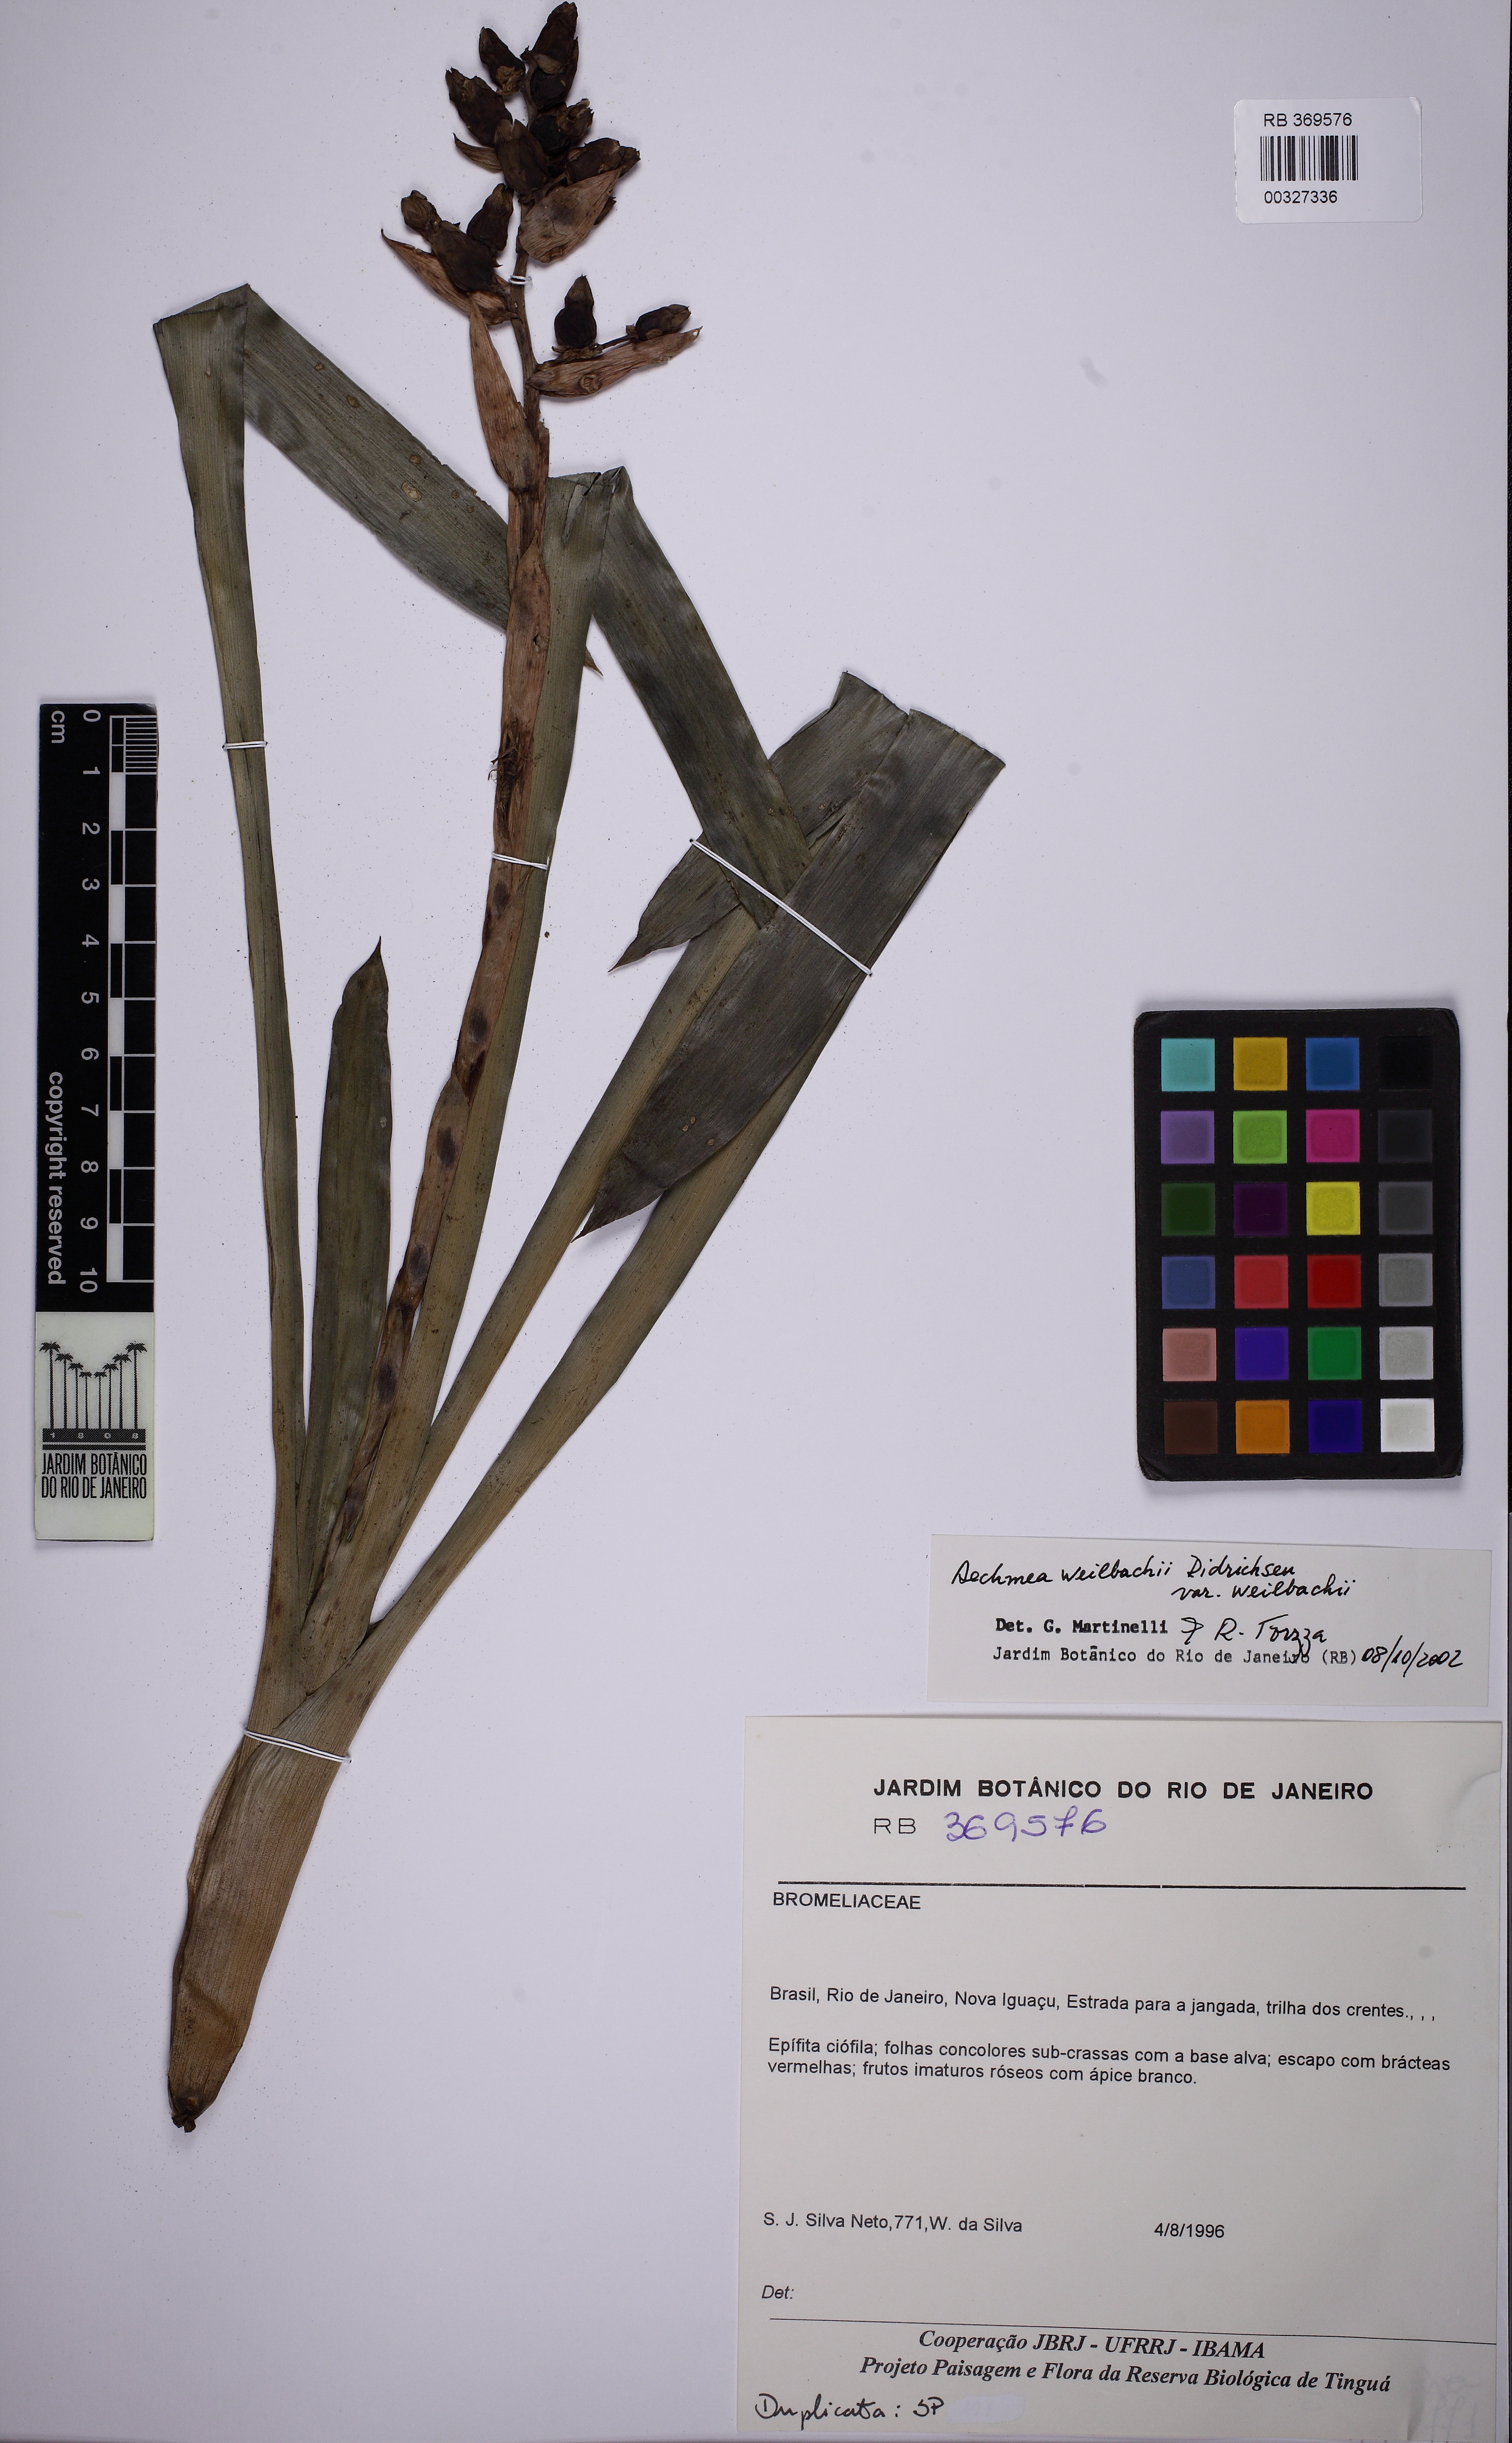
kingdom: Plantae
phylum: Tracheophyta
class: Liliopsida
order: Poales
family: Bromeliaceae
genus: Aechmea
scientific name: Aechmea weilbachii
